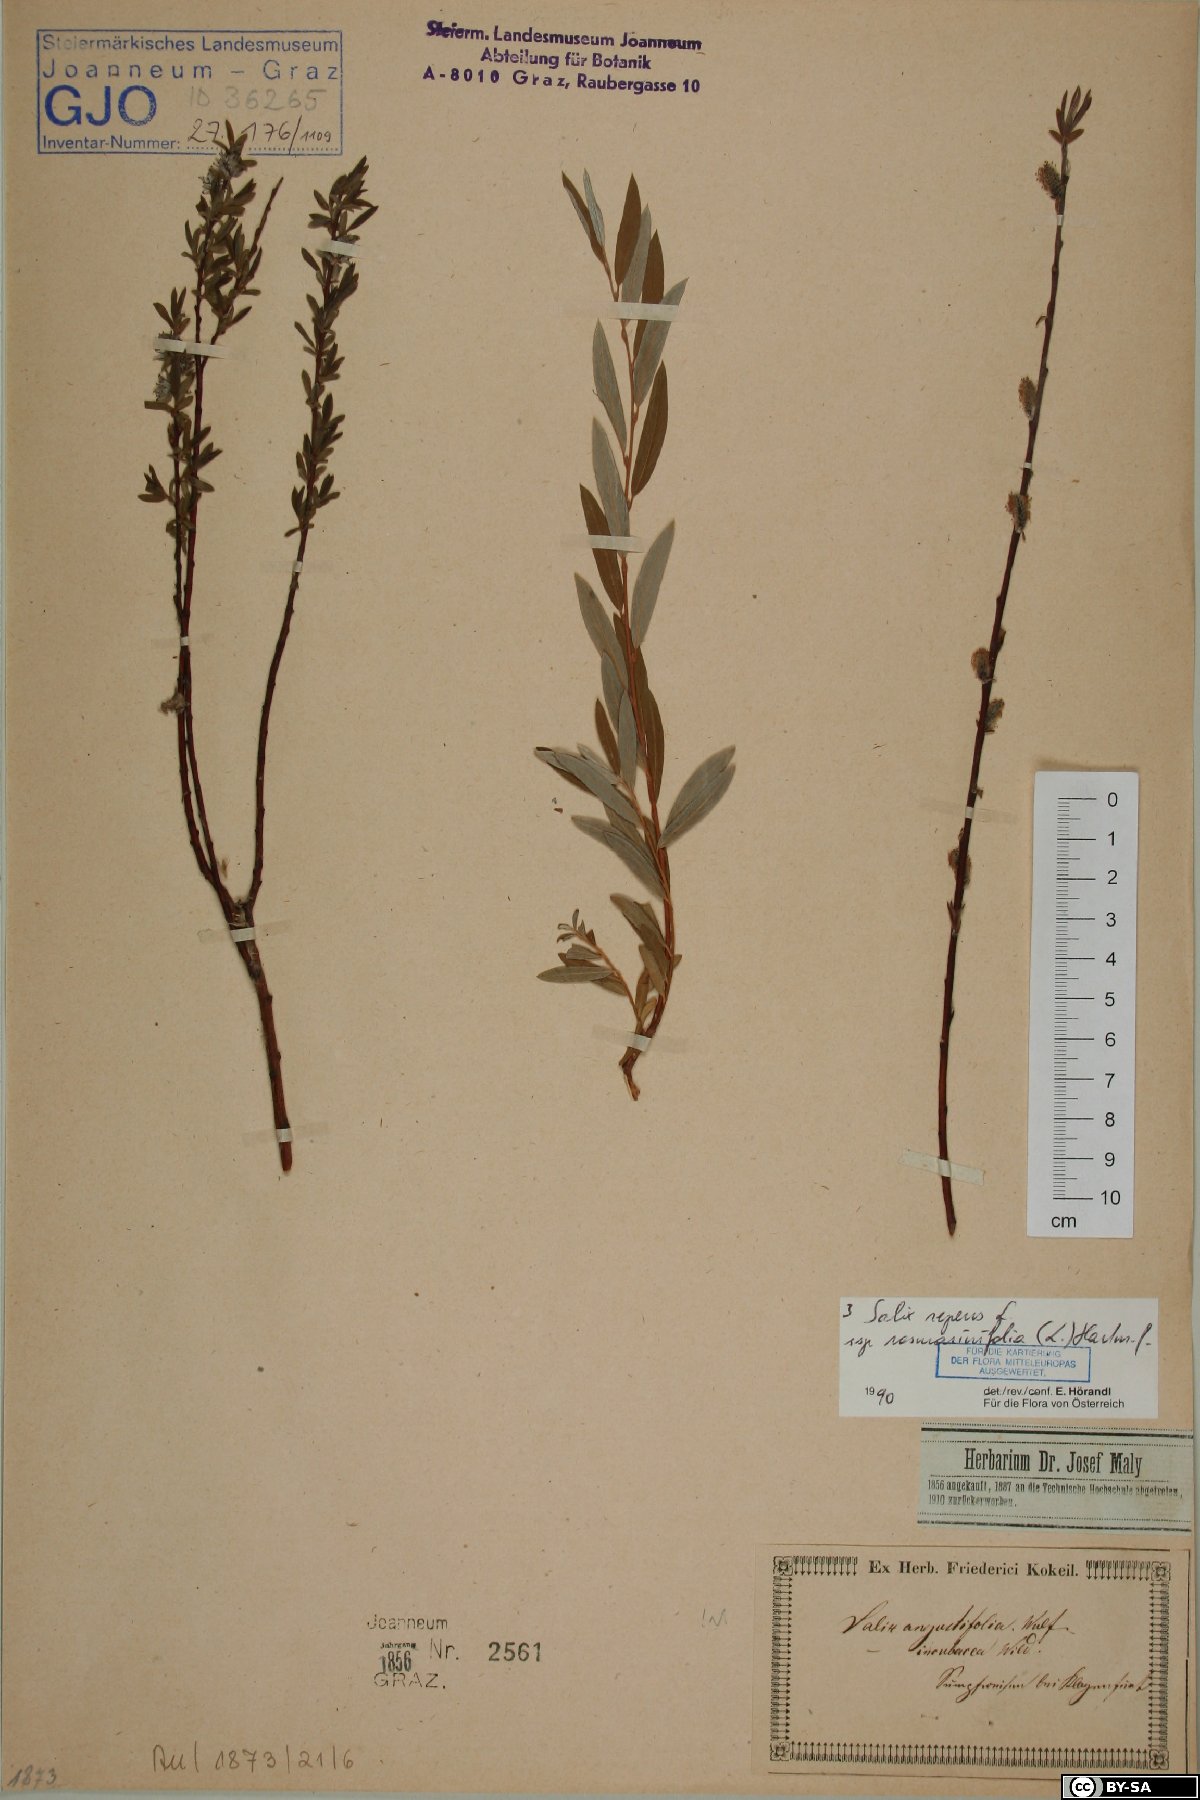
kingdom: Plantae
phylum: Tracheophyta
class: Magnoliopsida
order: Malpighiales
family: Salicaceae
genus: Salix
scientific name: Salix repens
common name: Creeping willow
